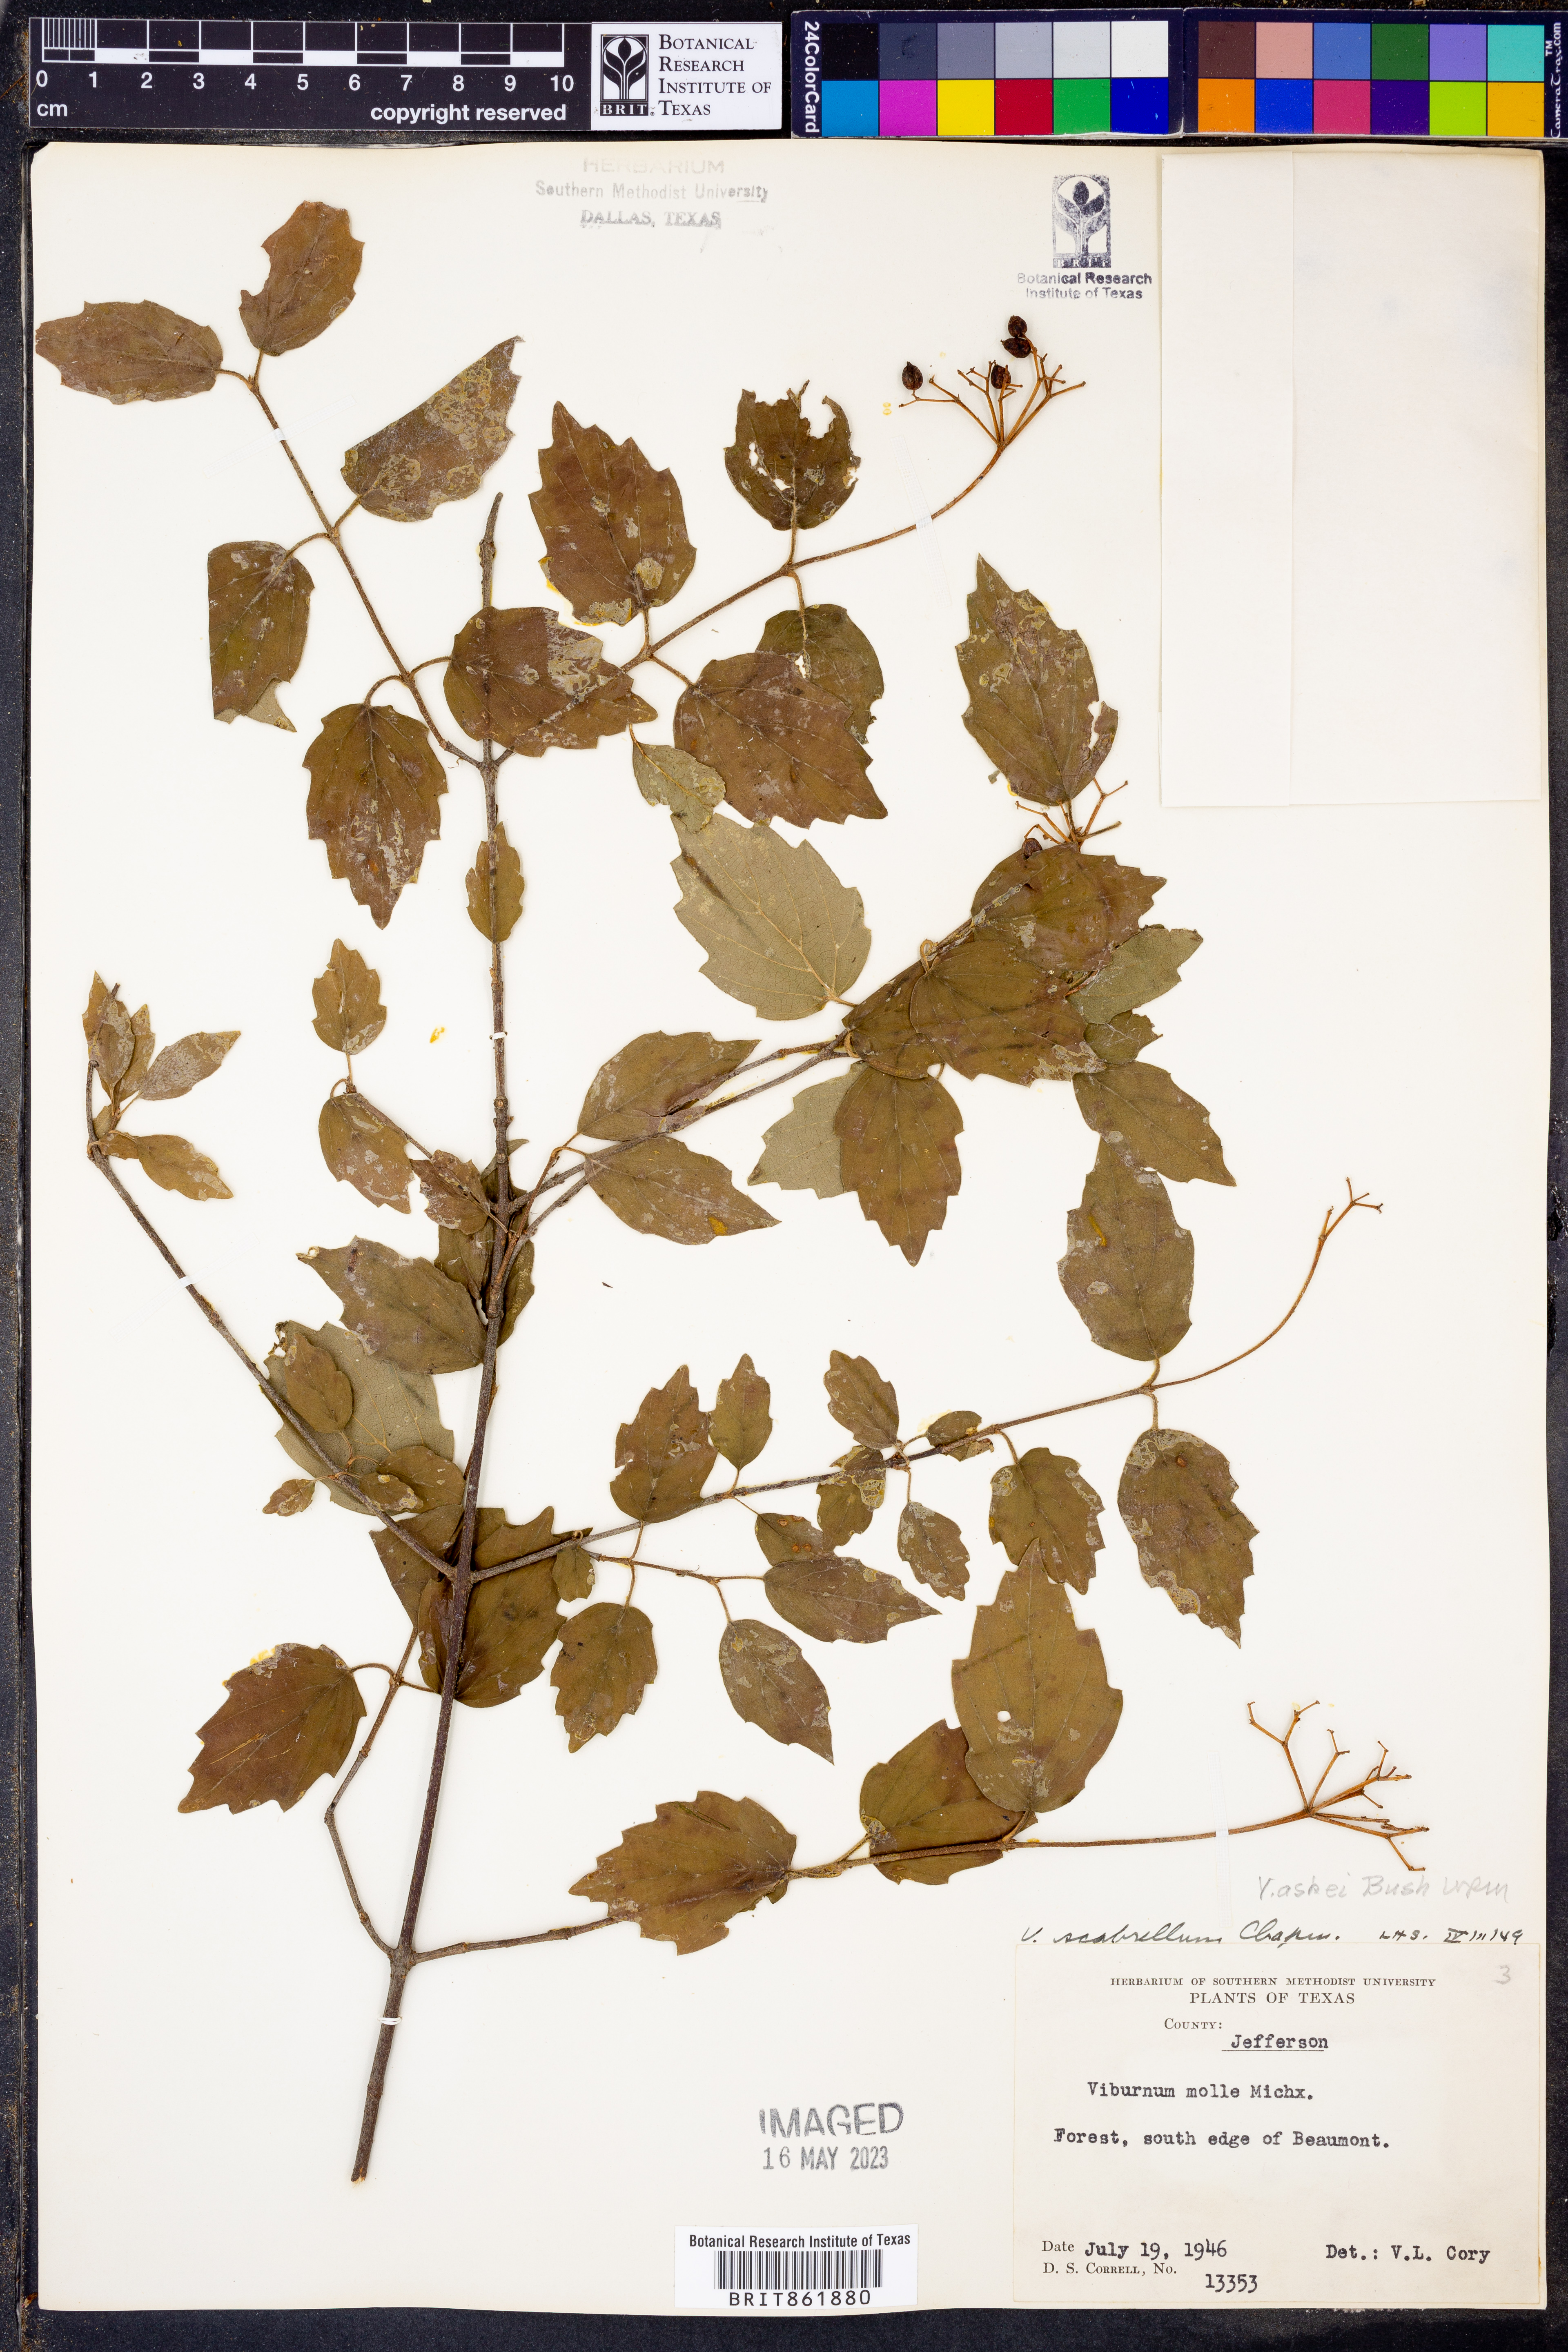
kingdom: Plantae
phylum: Tracheophyta
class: Magnoliopsida
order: Dipsacales
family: Viburnaceae
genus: Viburnum
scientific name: Viburnum recognitum
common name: Northern arrow-wood
